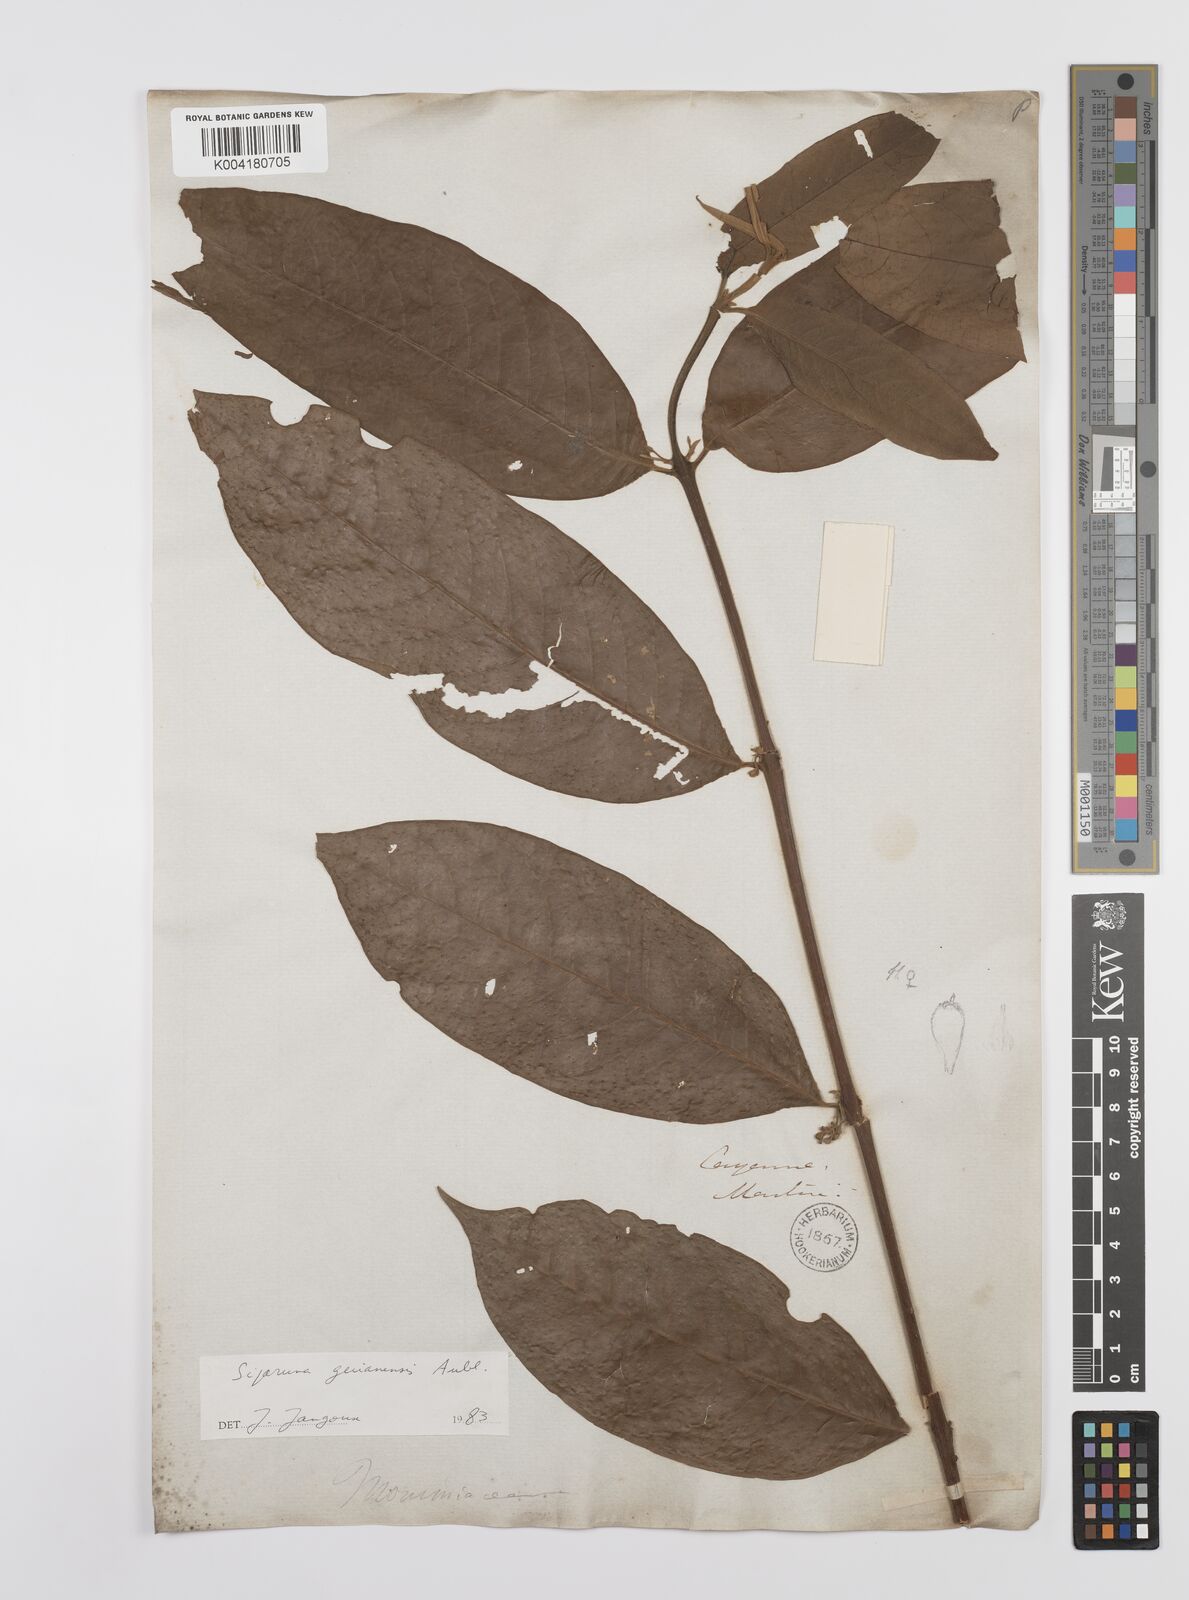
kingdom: Plantae
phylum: Tracheophyta
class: Magnoliopsida
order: Laurales
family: Siparunaceae
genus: Siparuna
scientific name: Siparuna guianensis
